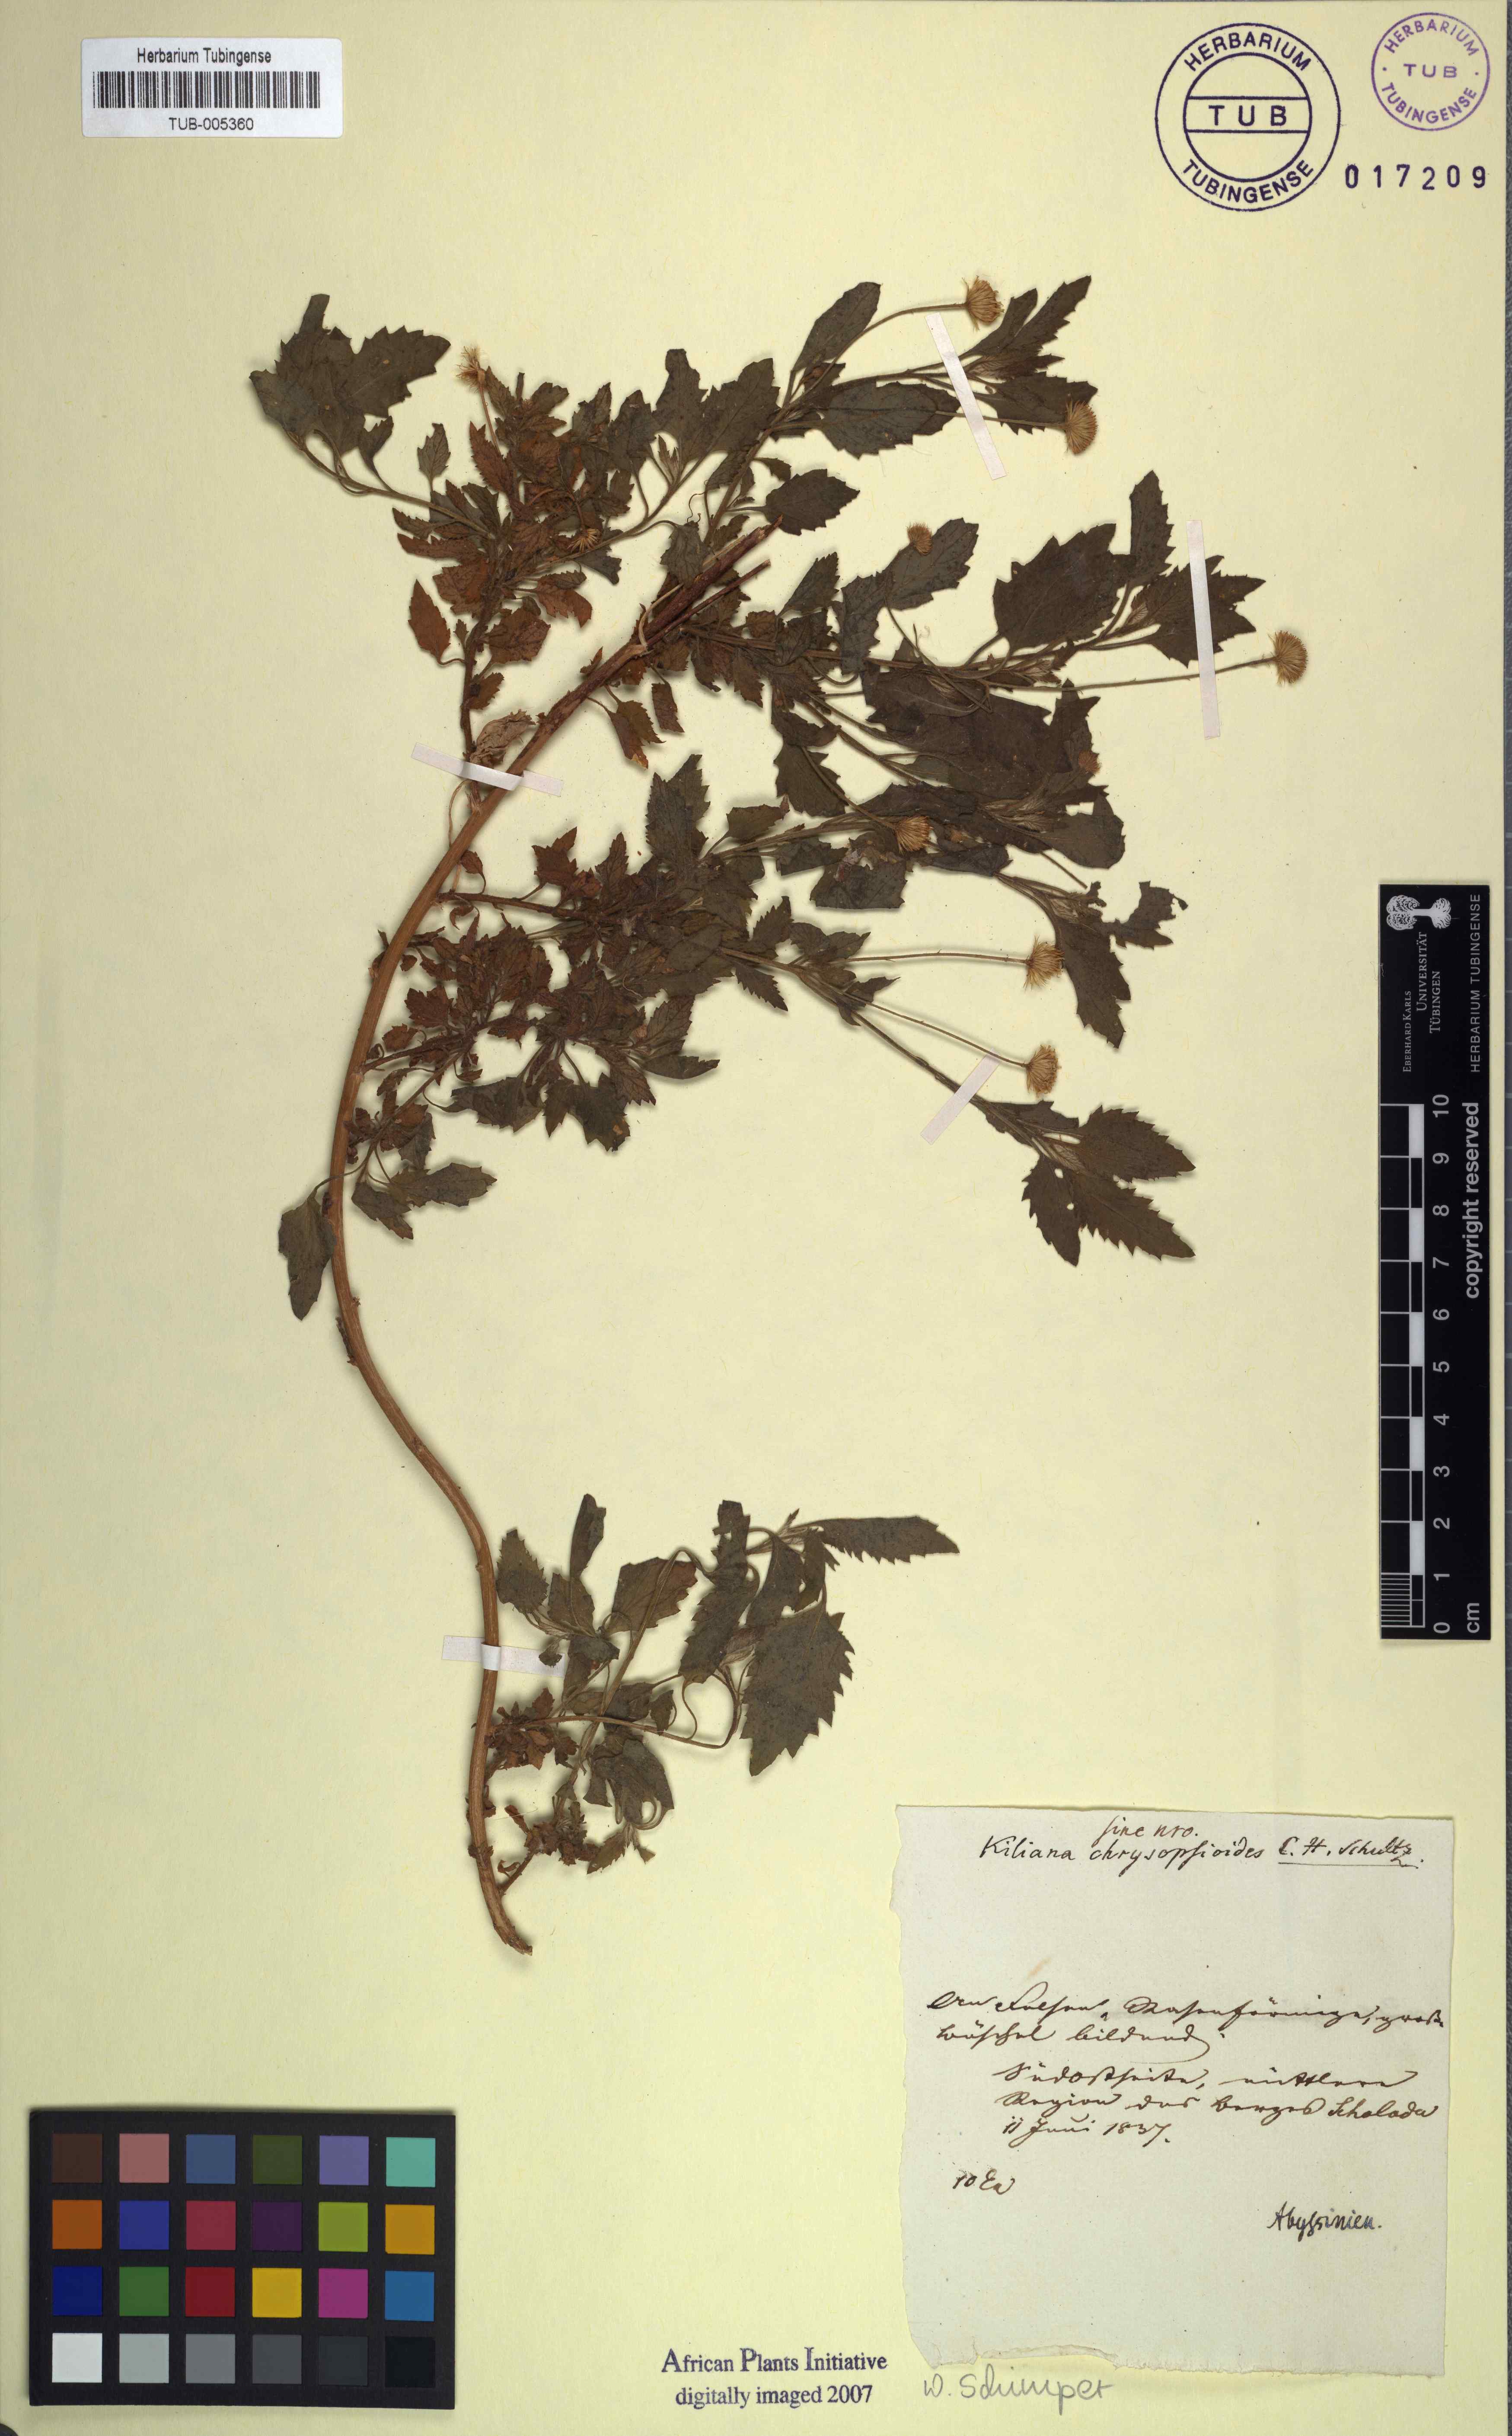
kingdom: Plantae
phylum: Tracheophyta
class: Magnoliopsida
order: Asterales
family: Asteraceae
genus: Pulicaria
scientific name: Pulicaria petiolaris
